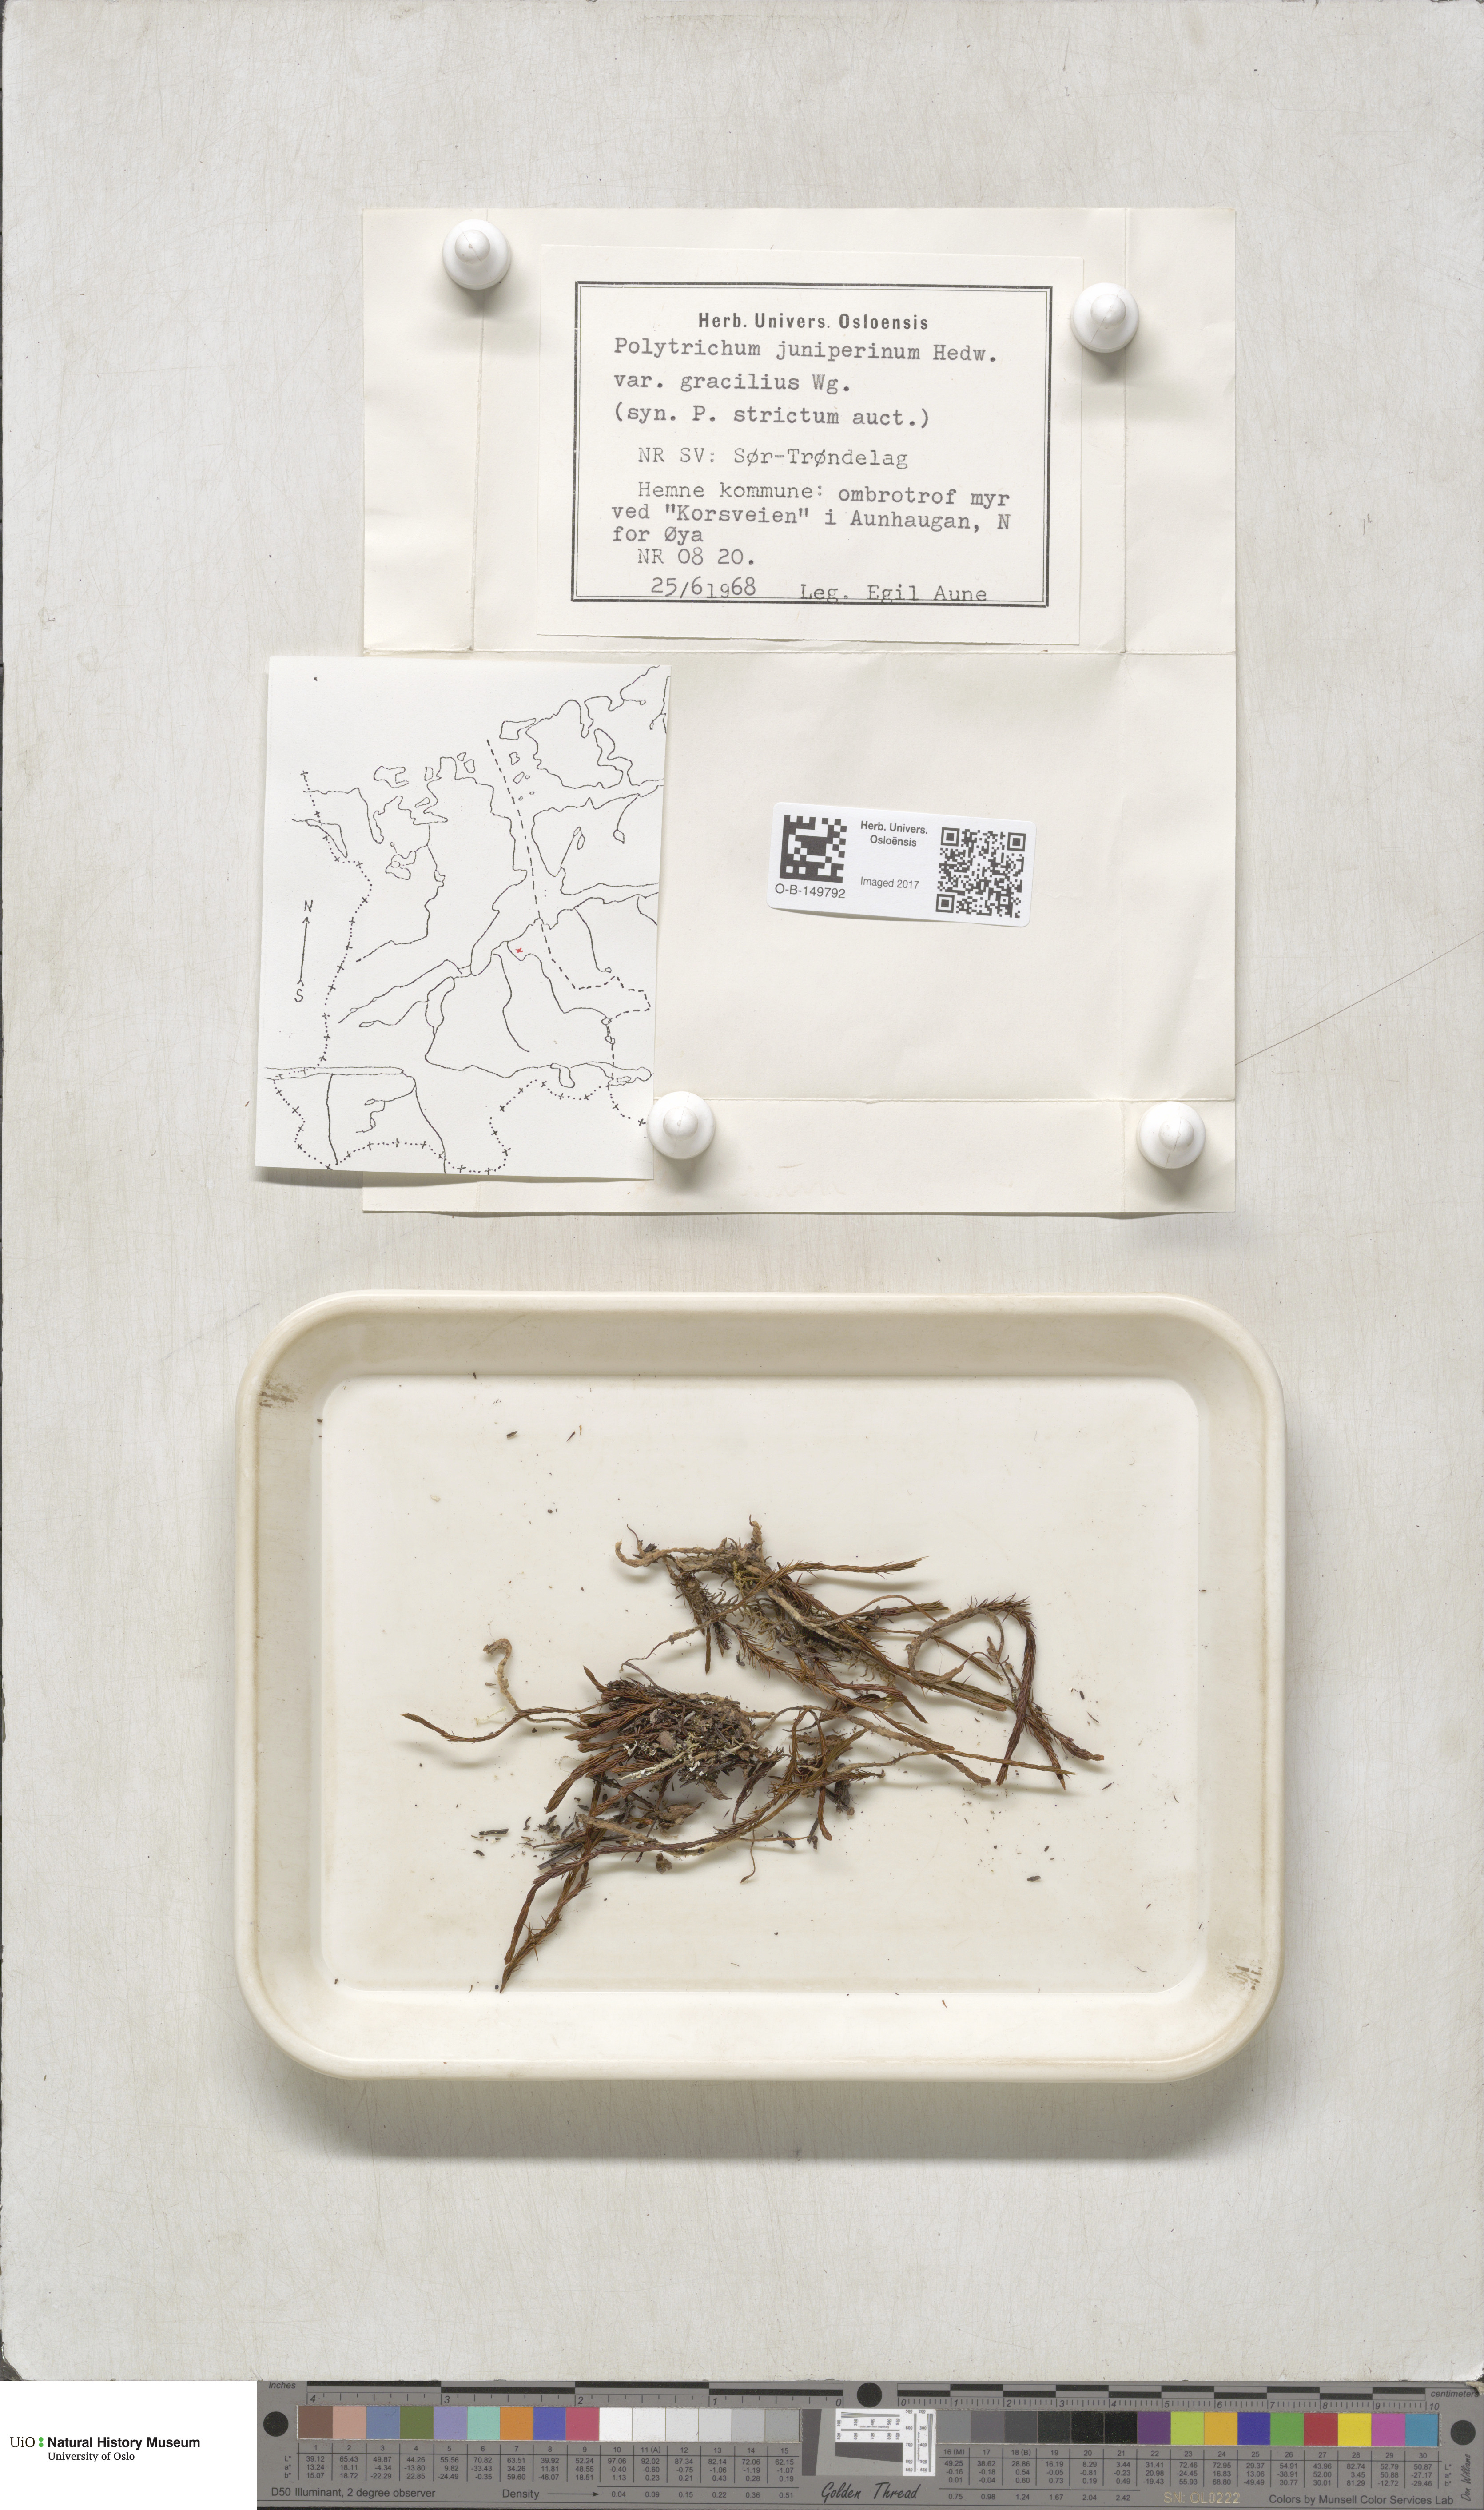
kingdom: Plantae
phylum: Bryophyta
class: Polytrichopsida
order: Polytrichales
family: Polytrichaceae
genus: Polytrichum
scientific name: Polytrichum juniperinum
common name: Juniper haircap moss
